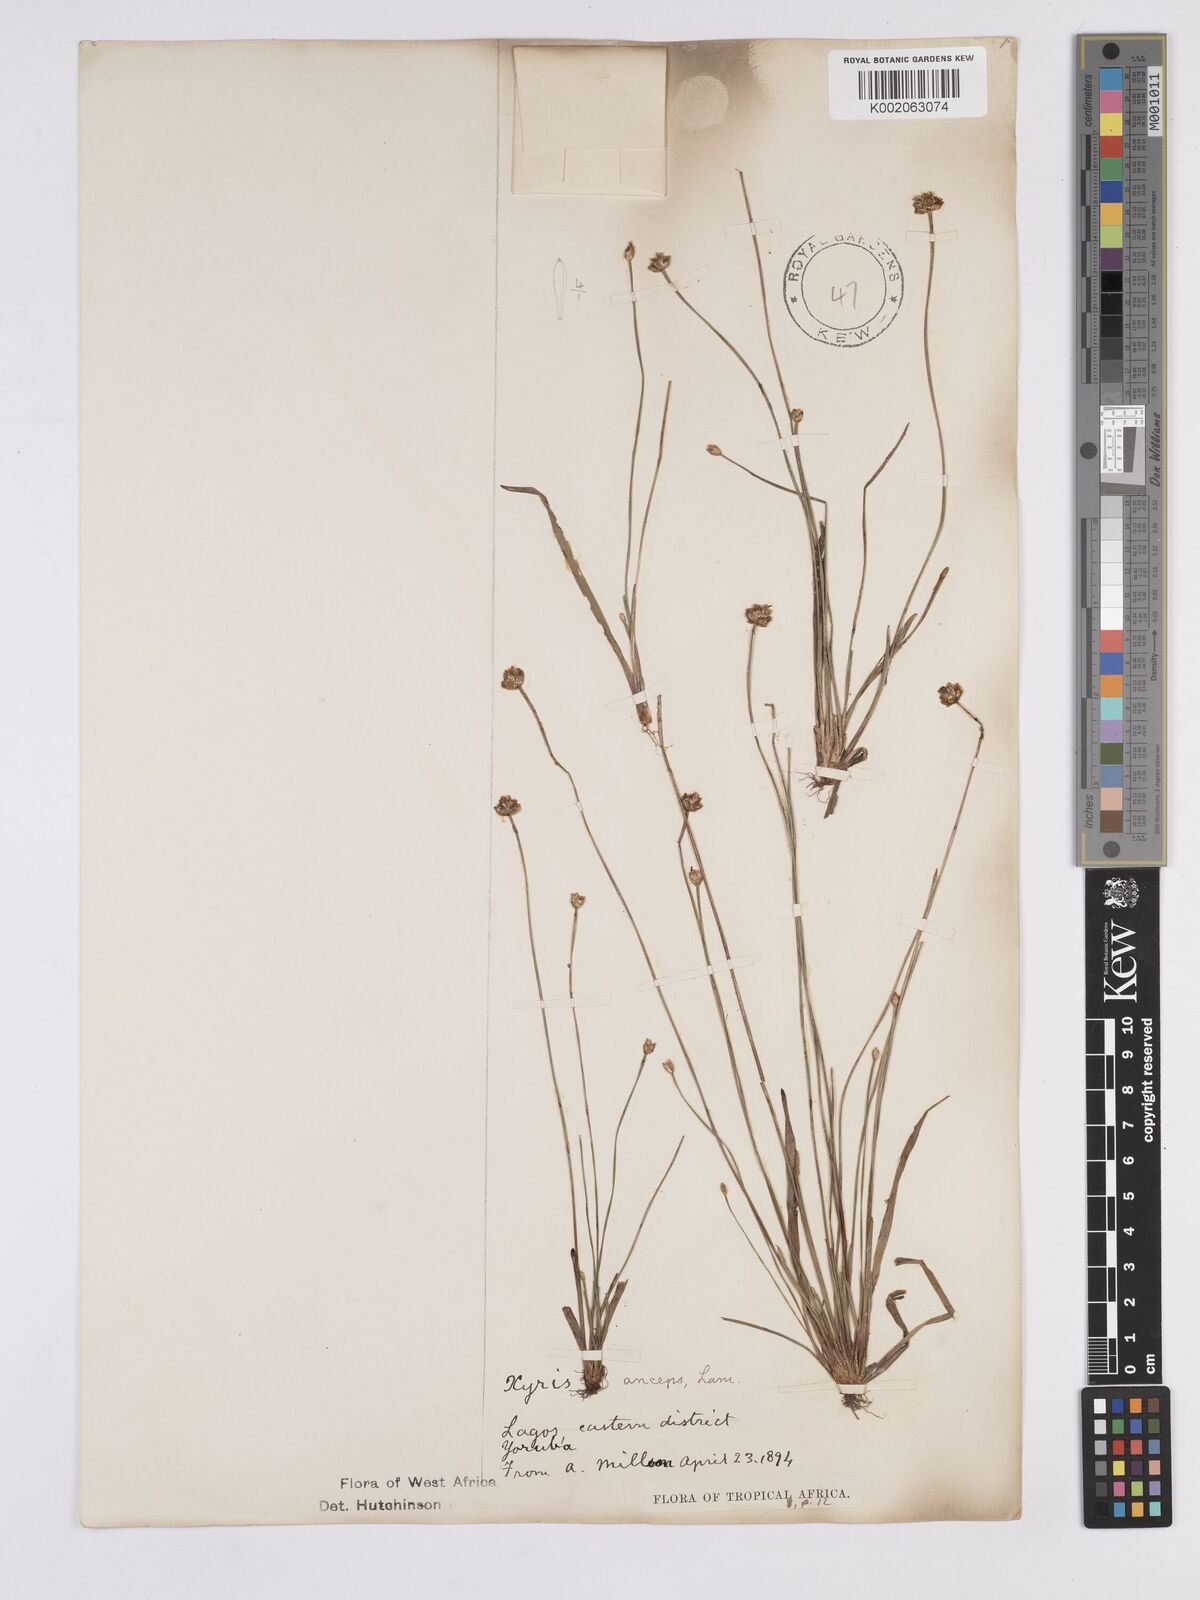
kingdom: Plantae
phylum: Tracheophyta
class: Liliopsida
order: Poales
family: Xyridaceae
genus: Xyris
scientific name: Xyris anceps
